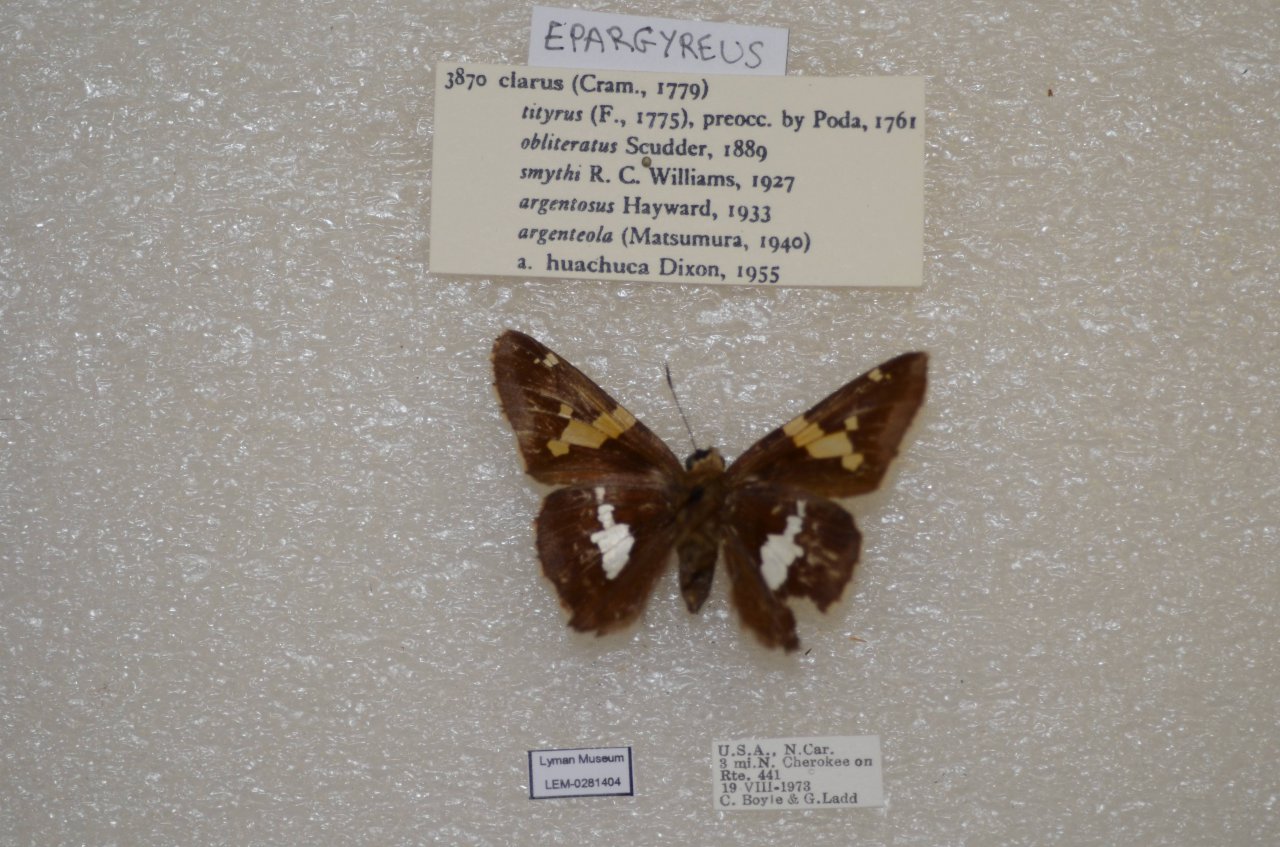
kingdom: Animalia
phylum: Arthropoda
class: Insecta
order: Lepidoptera
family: Hesperiidae
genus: Epargyreus
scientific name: Epargyreus clarus
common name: Silver-spotted Skipper
